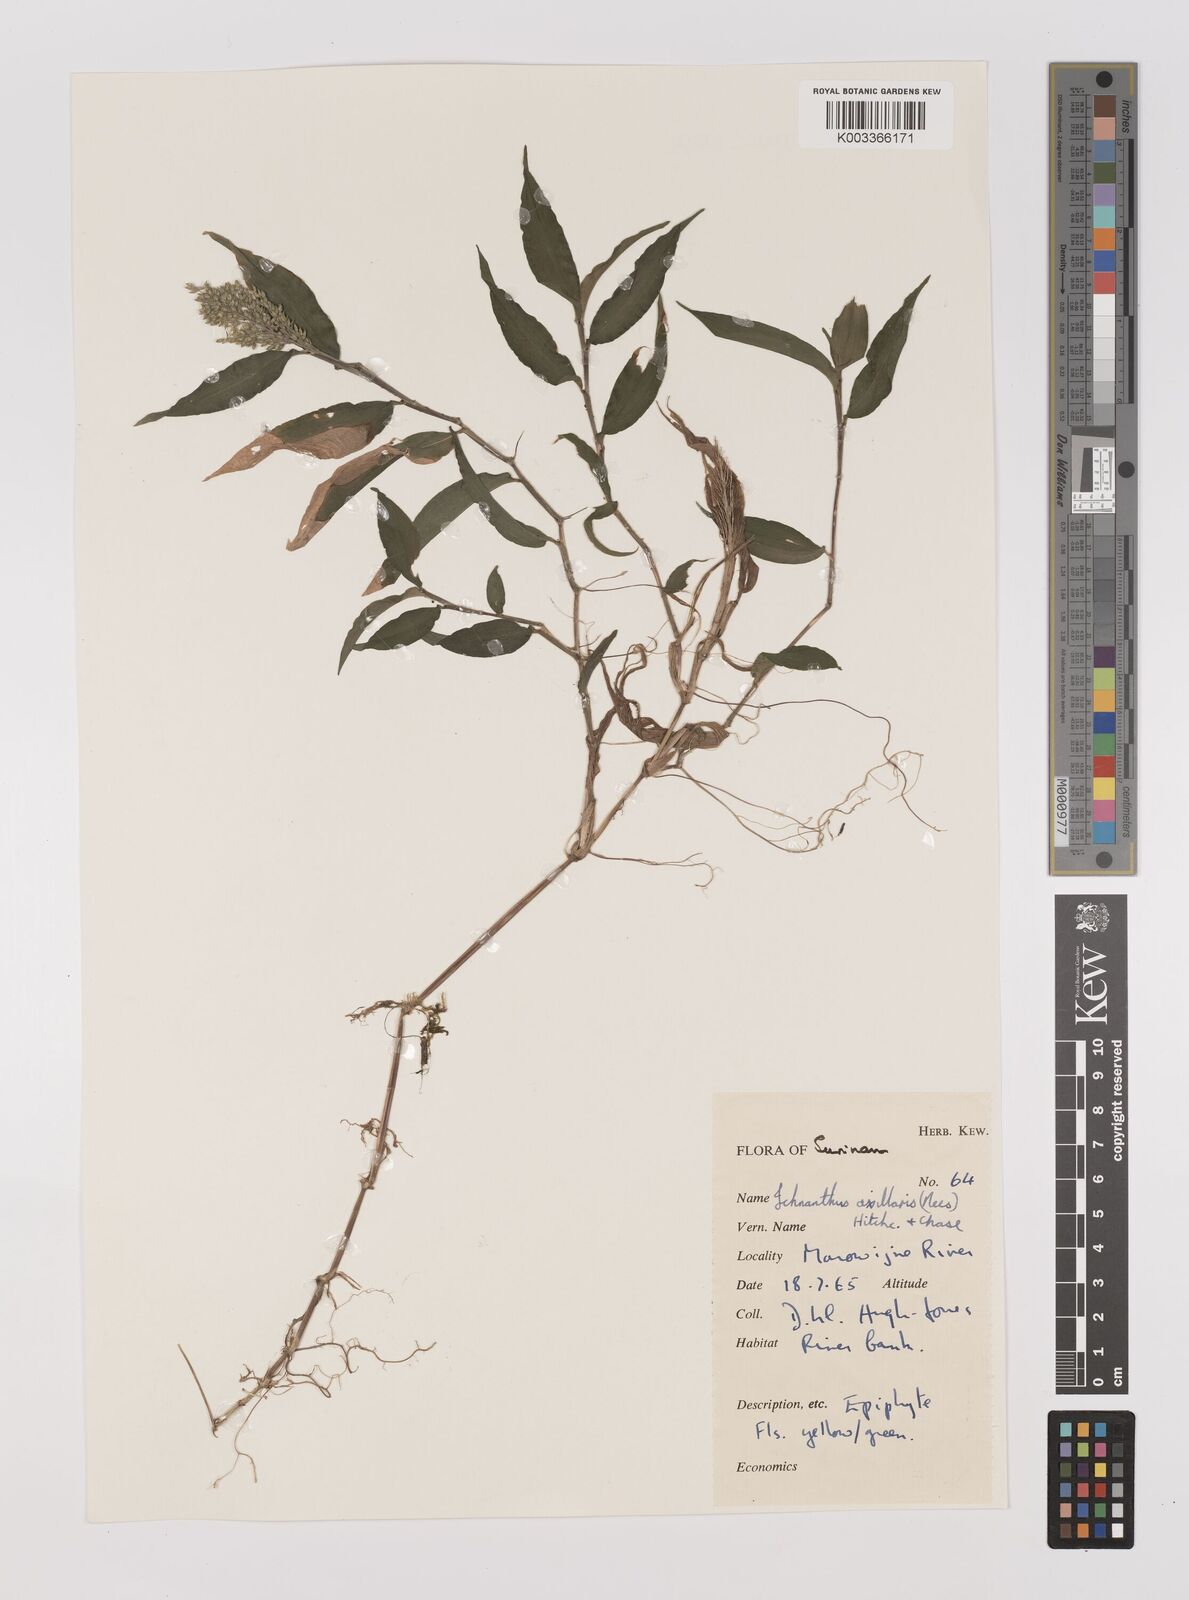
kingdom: Plantae
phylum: Tracheophyta
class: Liliopsida
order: Poales
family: Poaceae
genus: Ichnanthus
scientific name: Ichnanthus pallens
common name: Water grass
